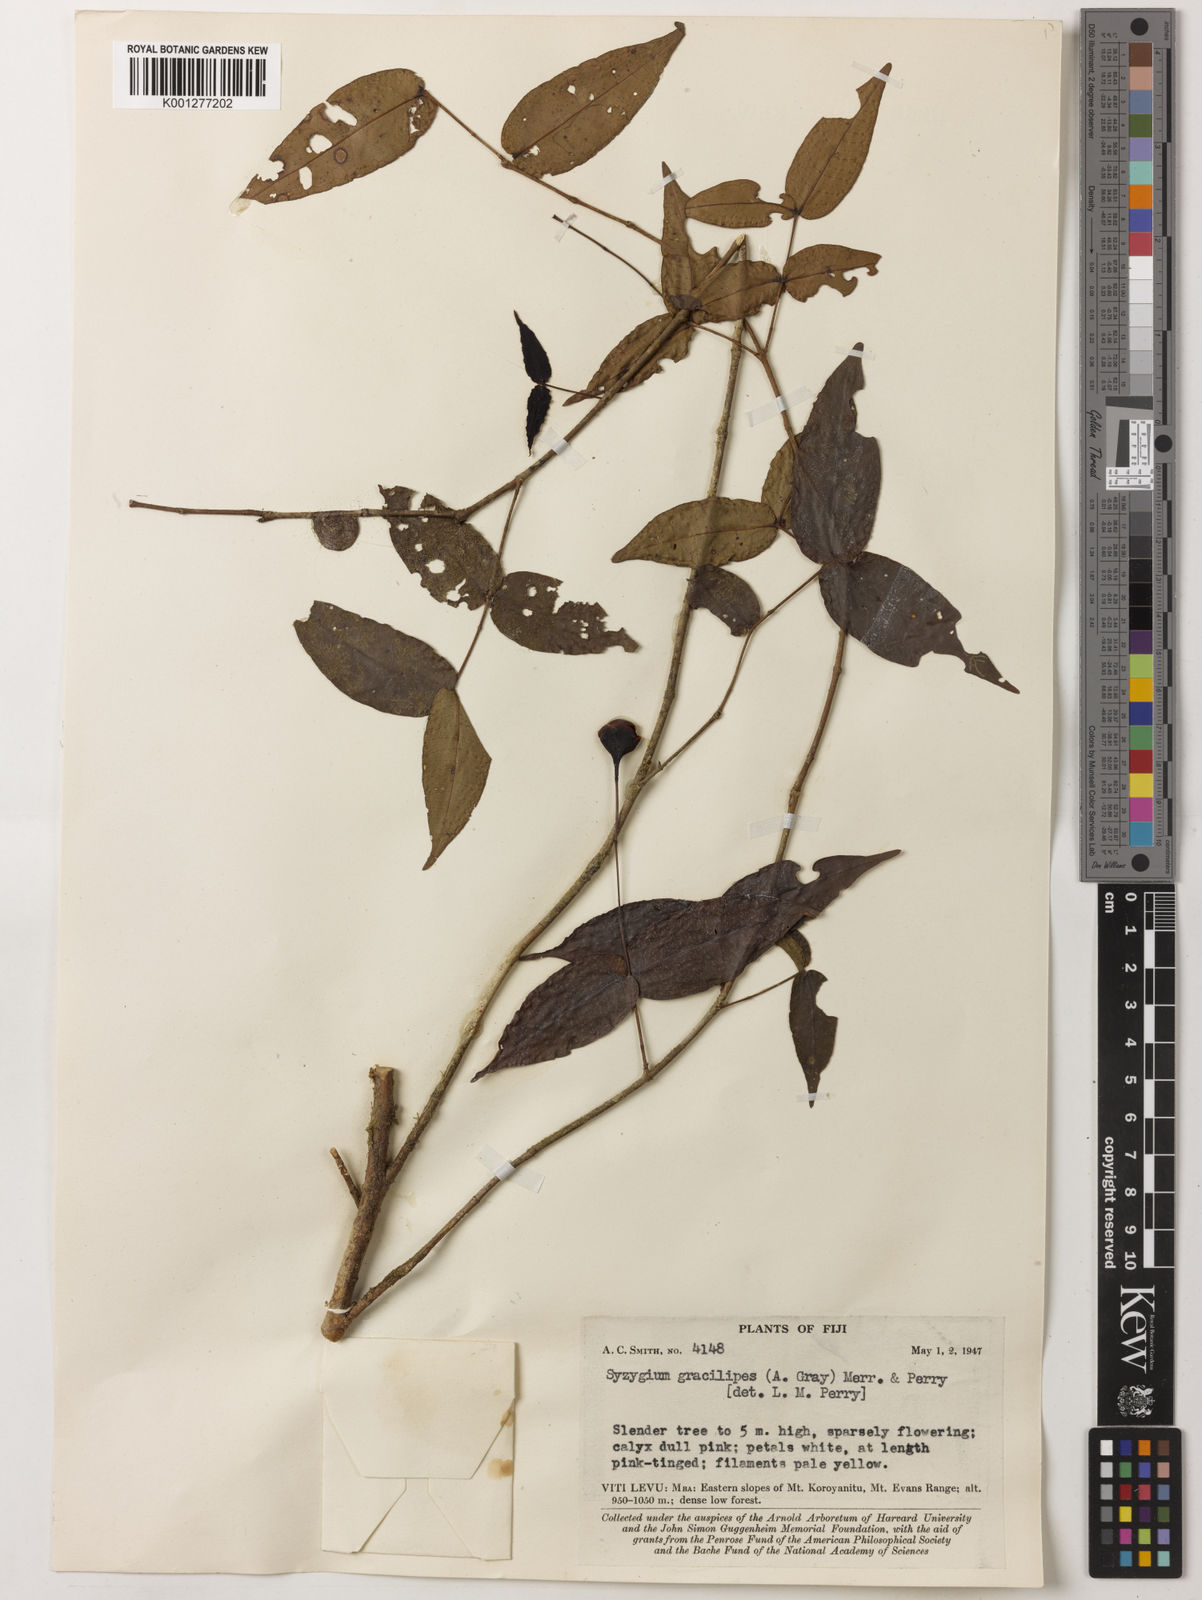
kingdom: Plantae
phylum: Tracheophyta
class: Magnoliopsida
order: Myrtales
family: Myrtaceae
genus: Syzygium
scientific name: Syzygium gracilipes
